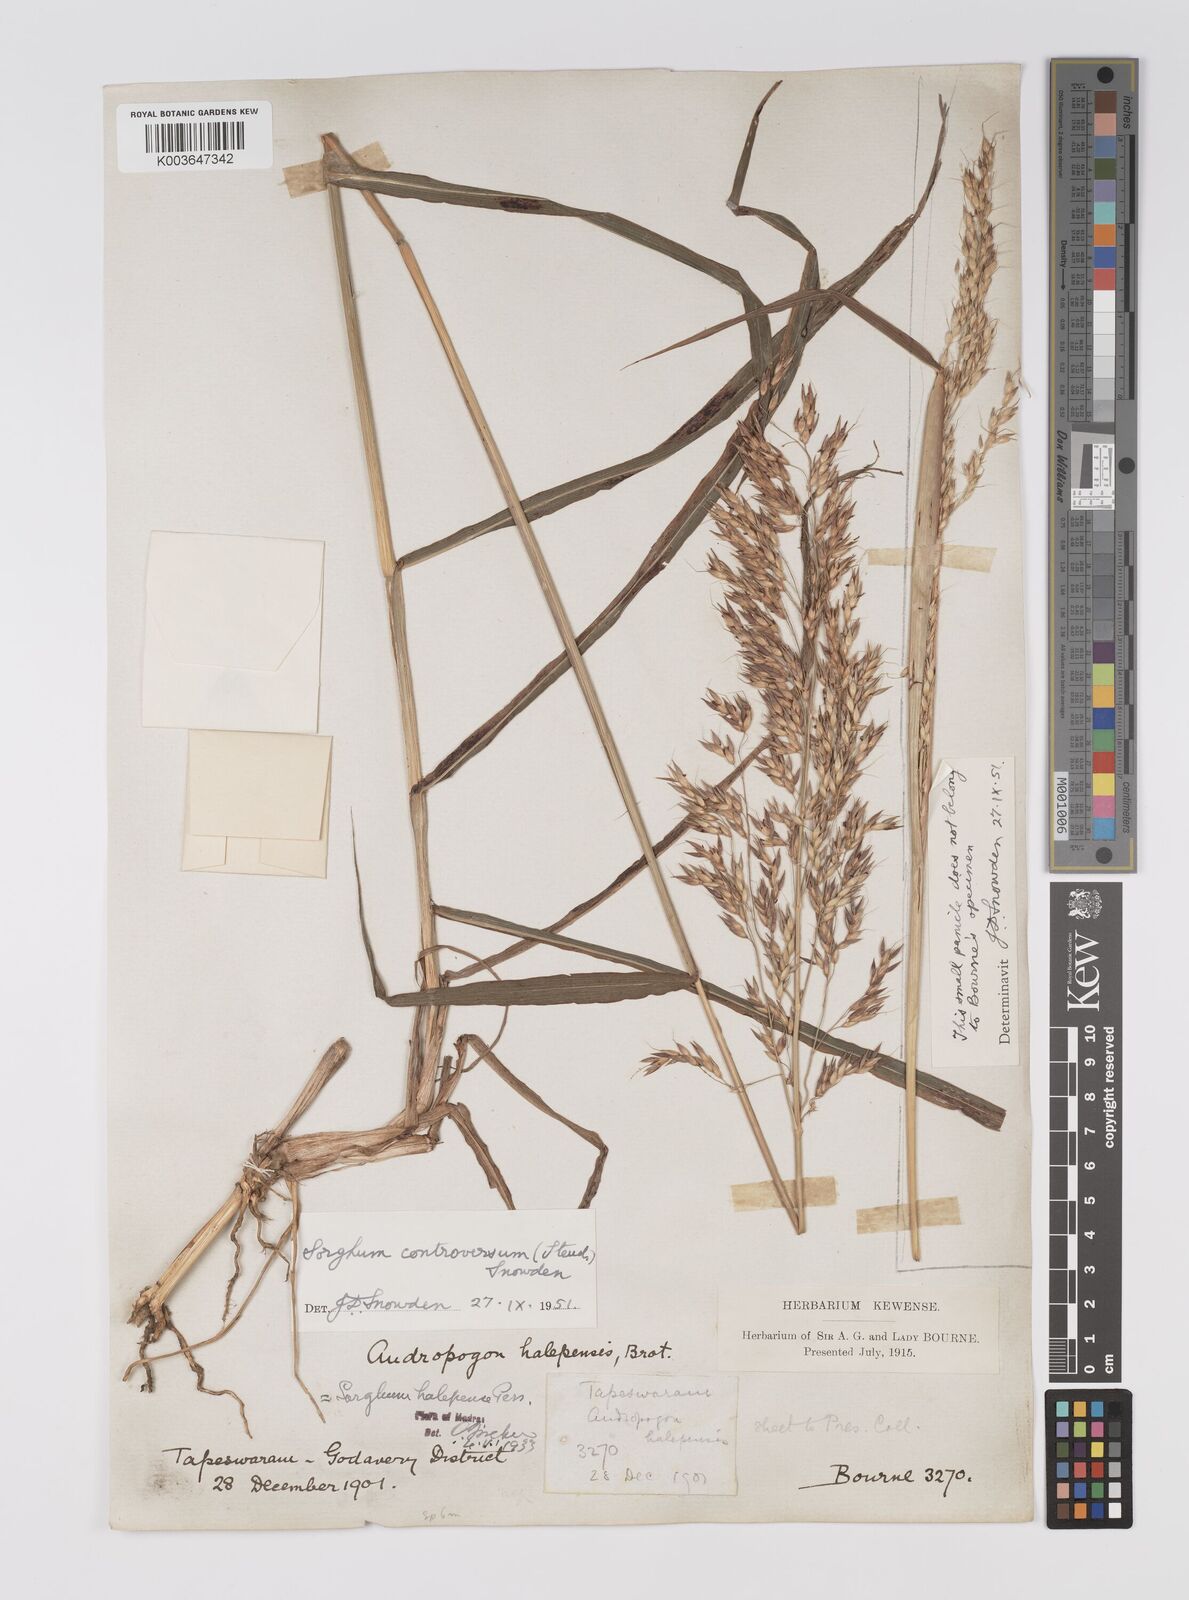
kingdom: Plantae
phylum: Tracheophyta
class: Liliopsida
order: Poales
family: Poaceae
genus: Sorghum
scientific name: Sorghum controversum
